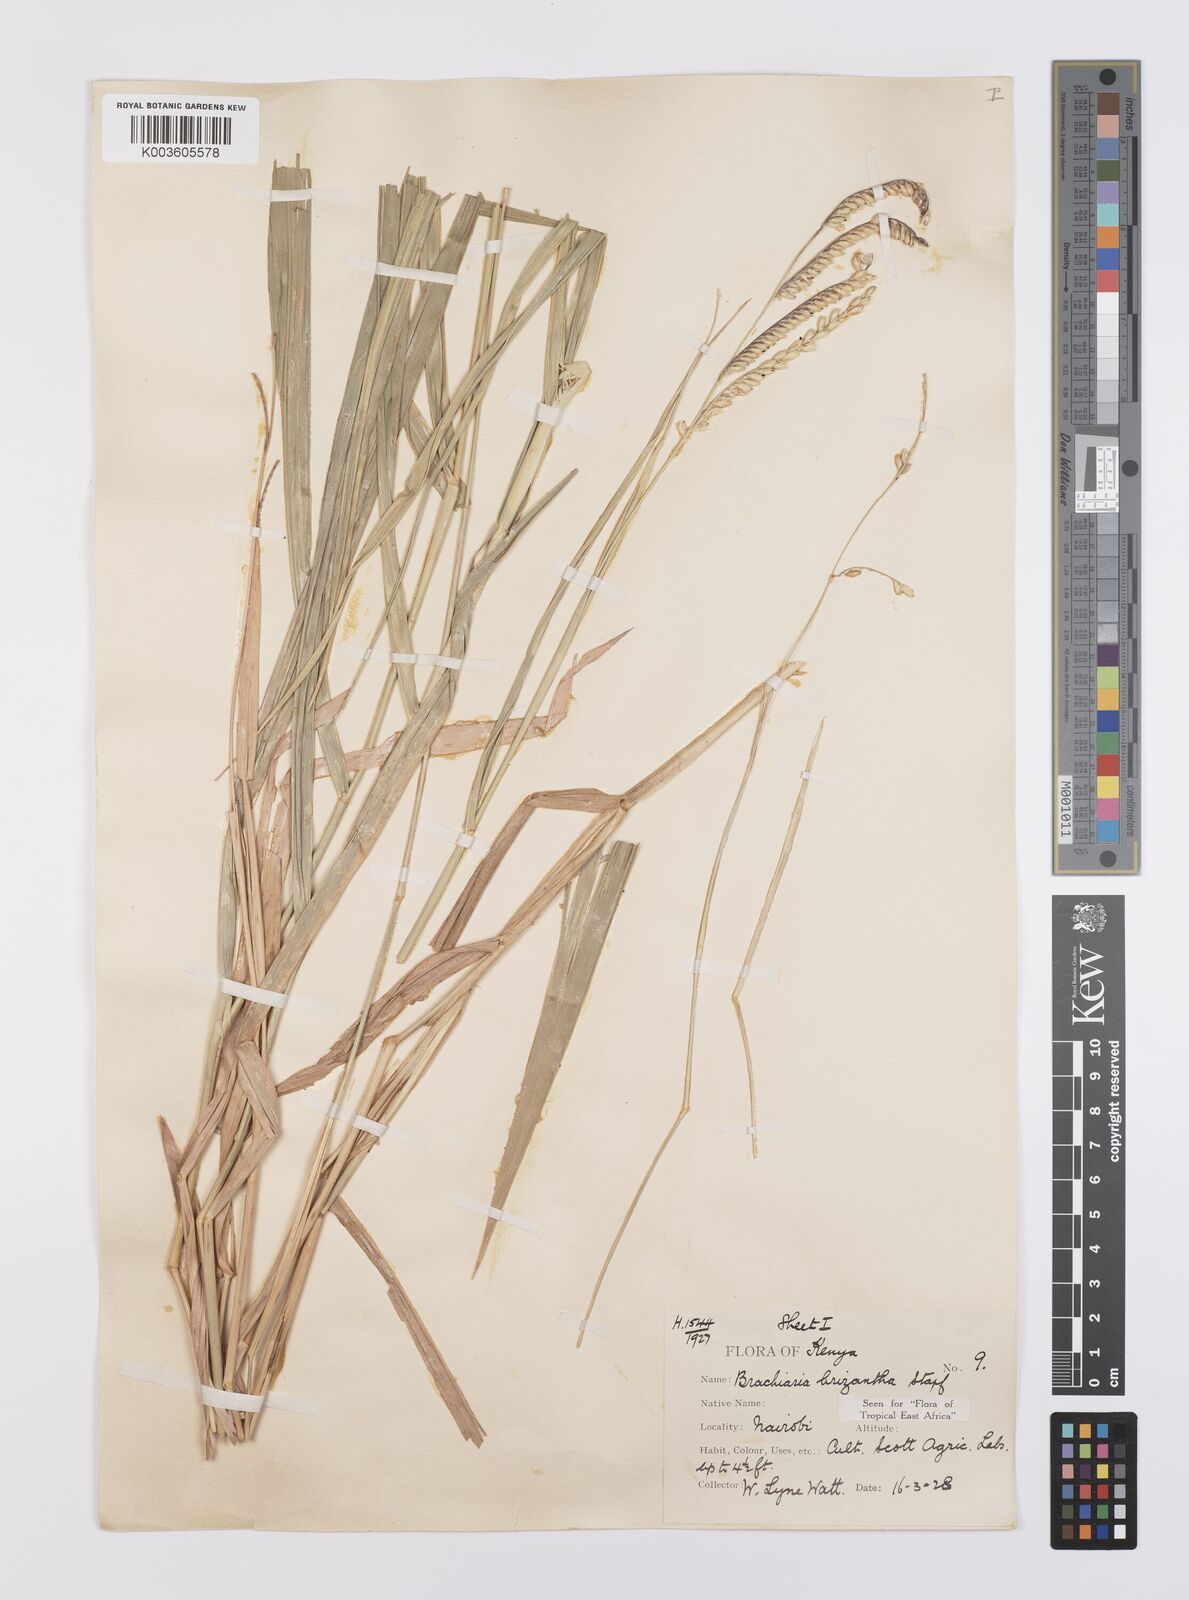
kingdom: Plantae
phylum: Tracheophyta
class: Liliopsida
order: Poales
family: Poaceae
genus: Urochloa
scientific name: Urochloa brizantha
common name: Palisade signalgrass
